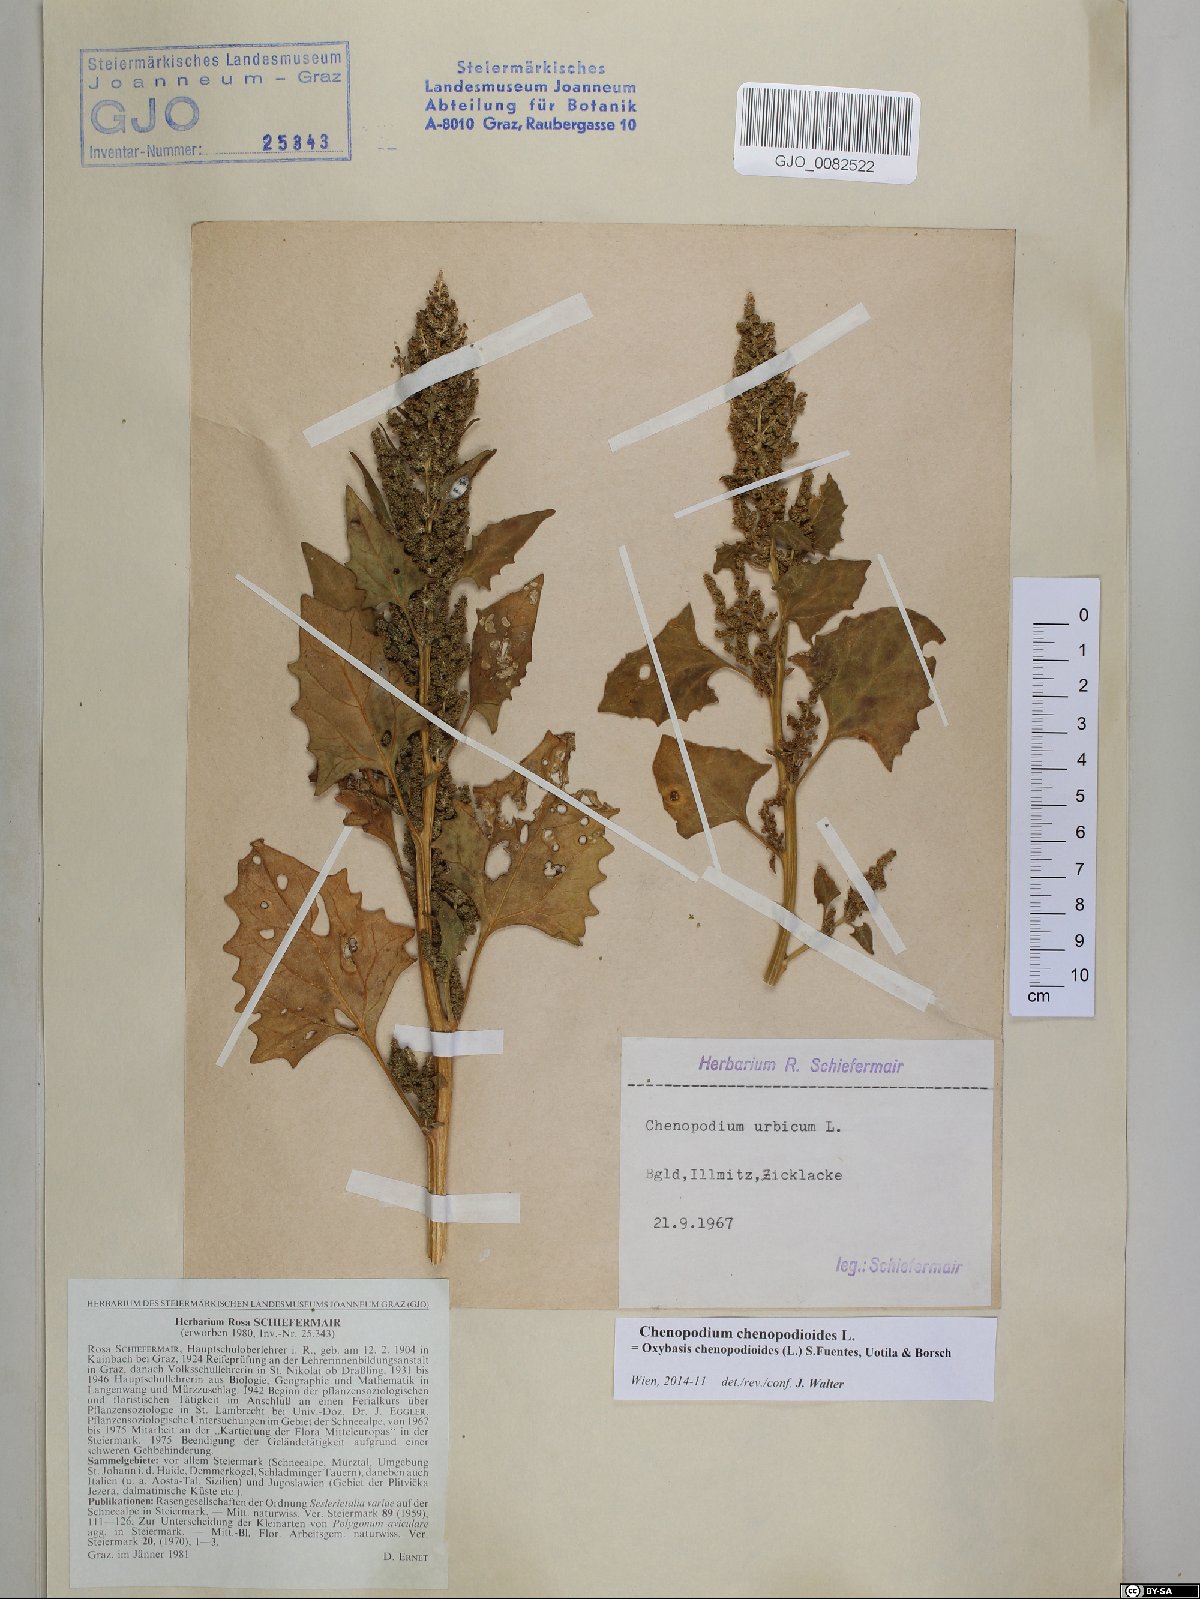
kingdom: Plantae
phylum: Tracheophyta
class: Magnoliopsida
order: Caryophyllales
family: Amaranthaceae
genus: Oxybasis
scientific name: Oxybasis chenopodioides
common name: Saltmarsh goosefoot
